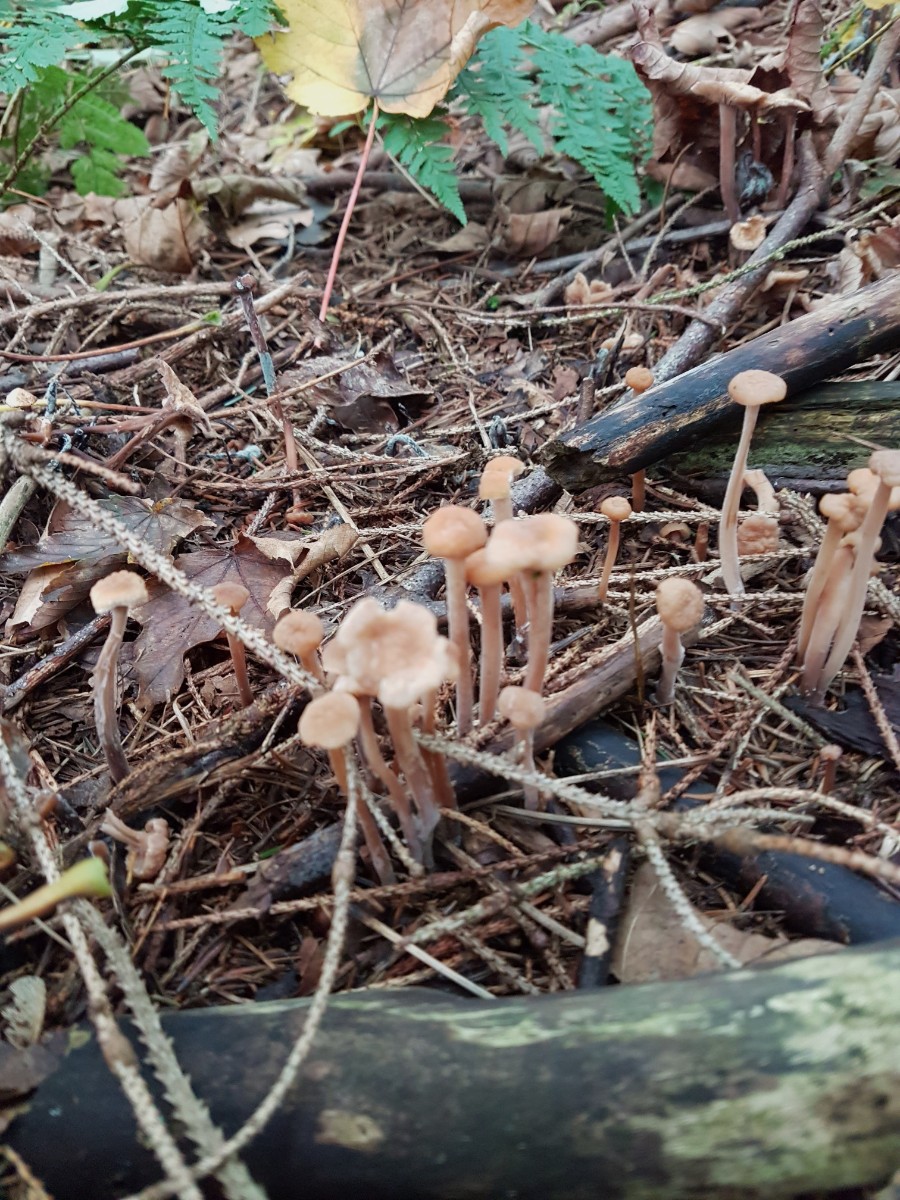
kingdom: Fungi
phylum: Basidiomycota
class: Agaricomycetes
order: Agaricales
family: Omphalotaceae
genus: Collybiopsis
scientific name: Collybiopsis confluens
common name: knippe-fladhat
